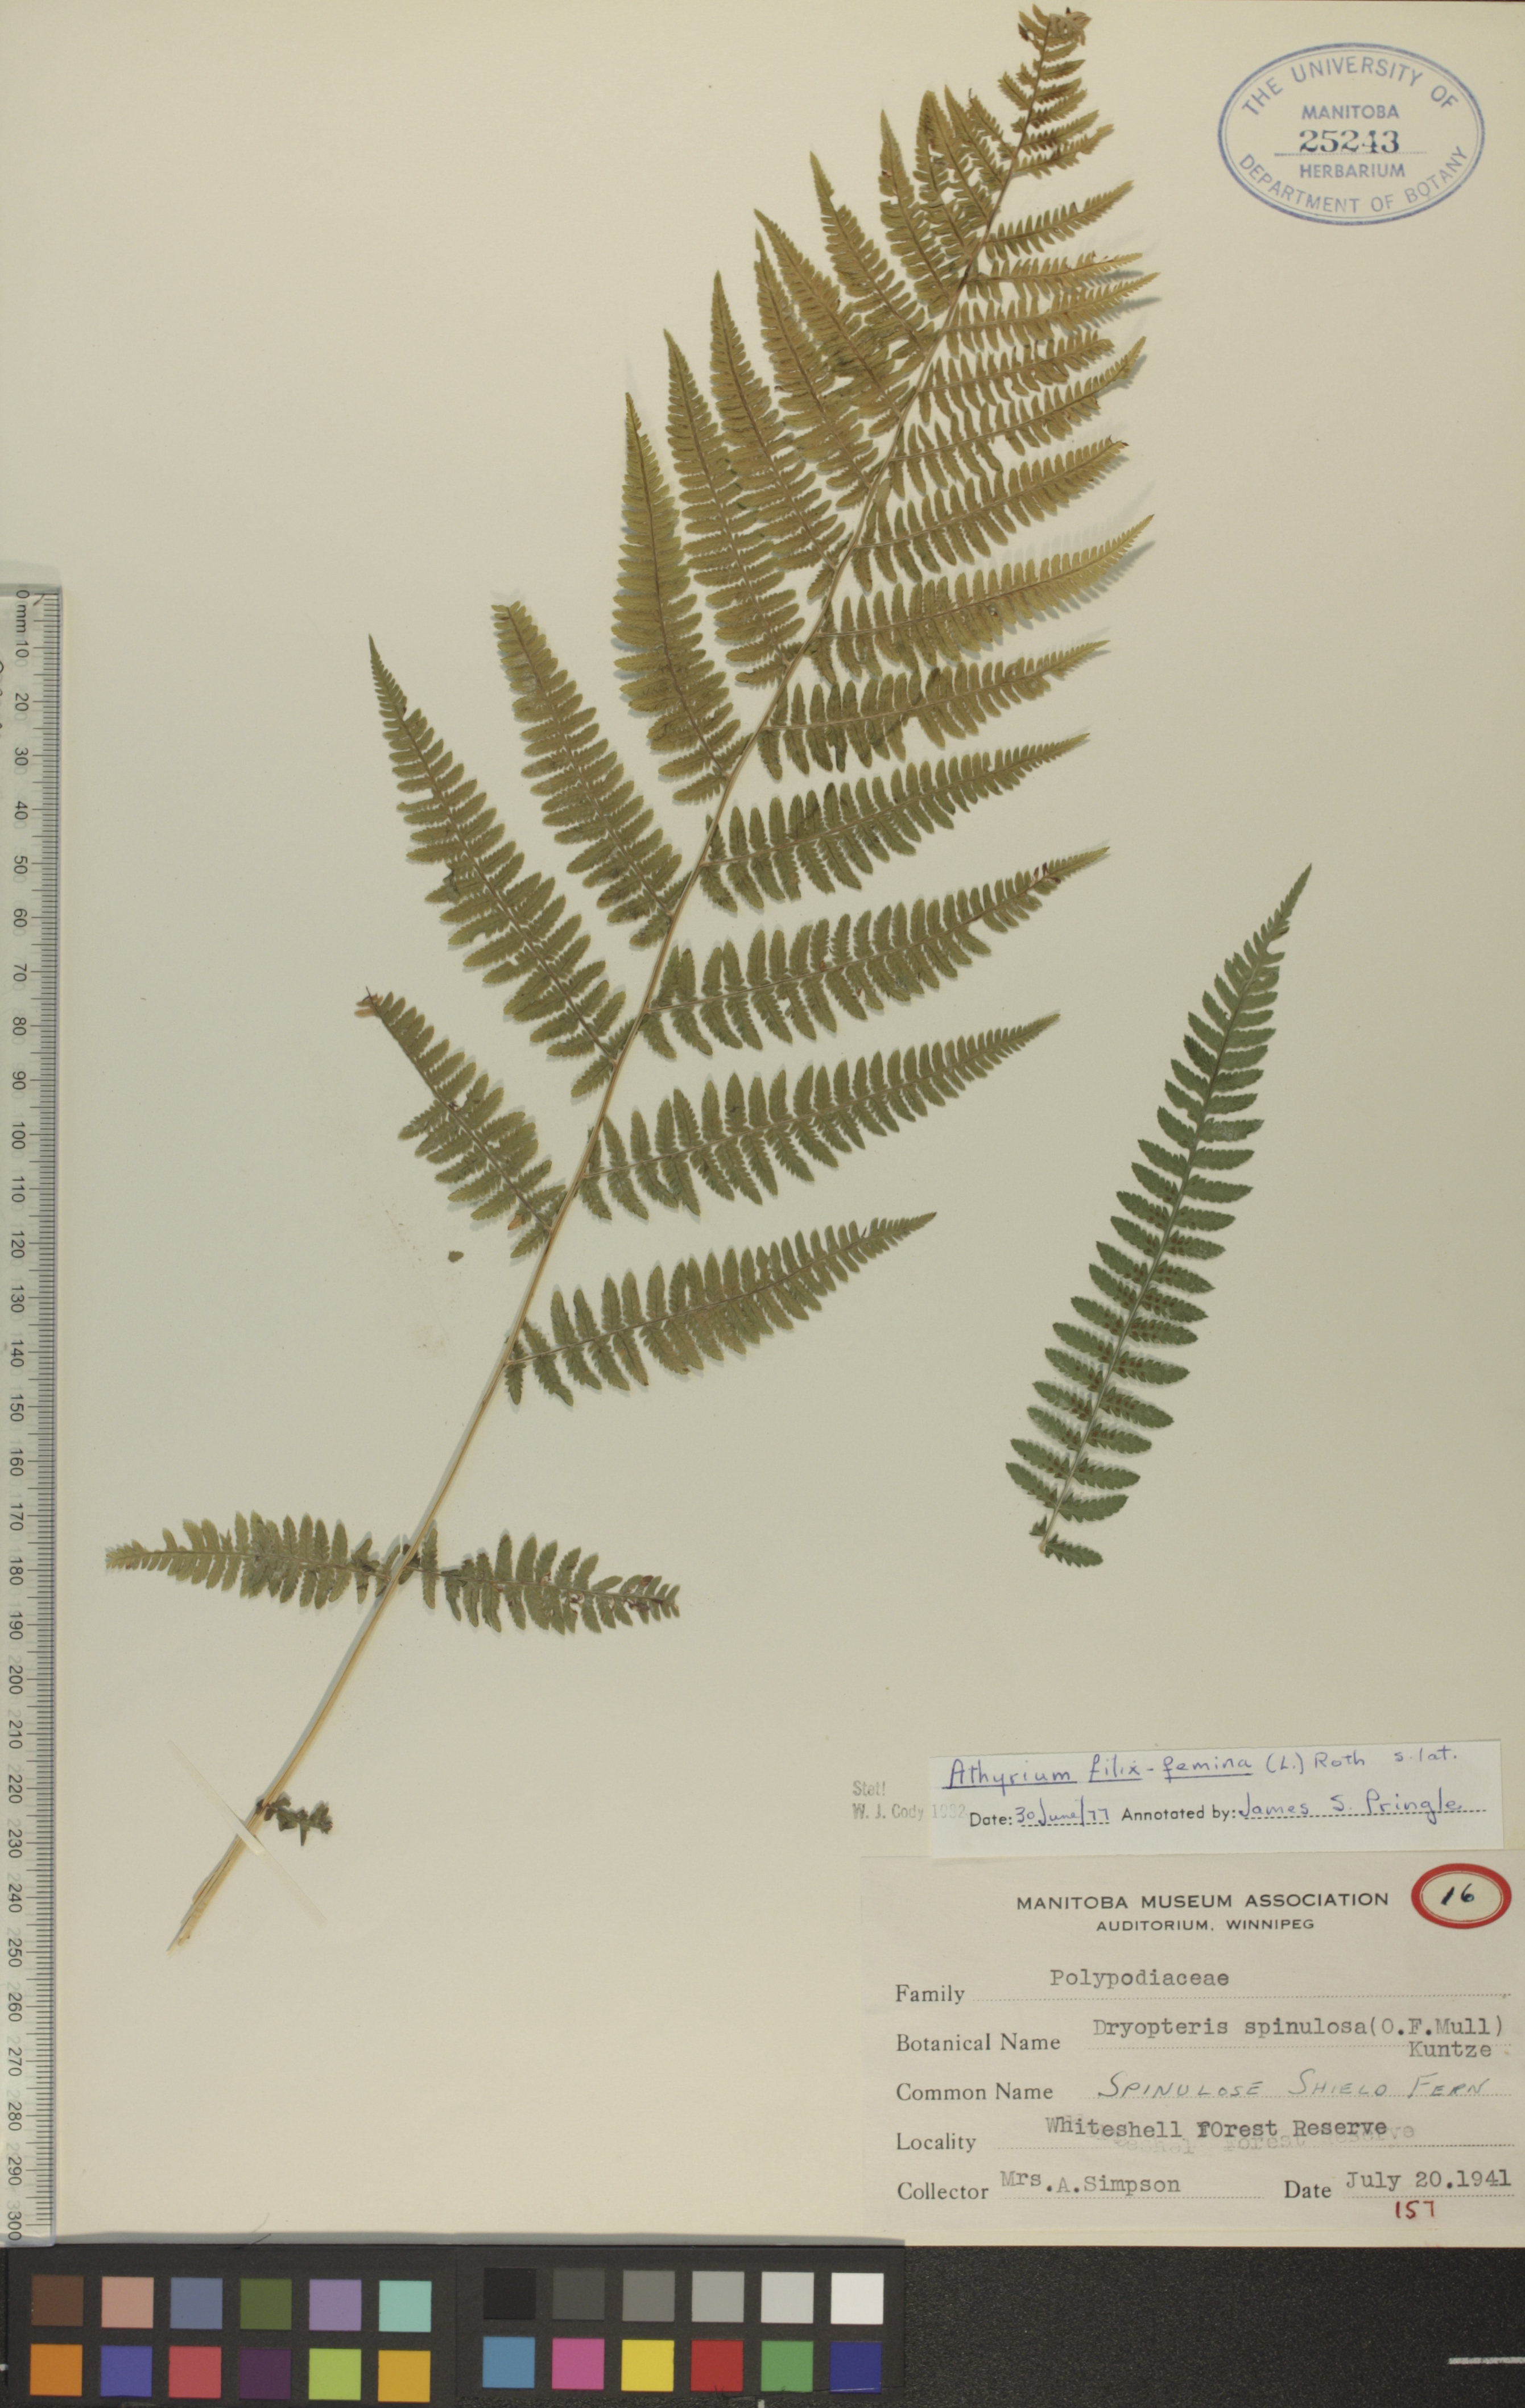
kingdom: Plantae
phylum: Tracheophyta
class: Polypodiopsida
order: Polypodiales
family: Athyriaceae
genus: Athyrium
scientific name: Athyrium filix-femina
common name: Lady fern
